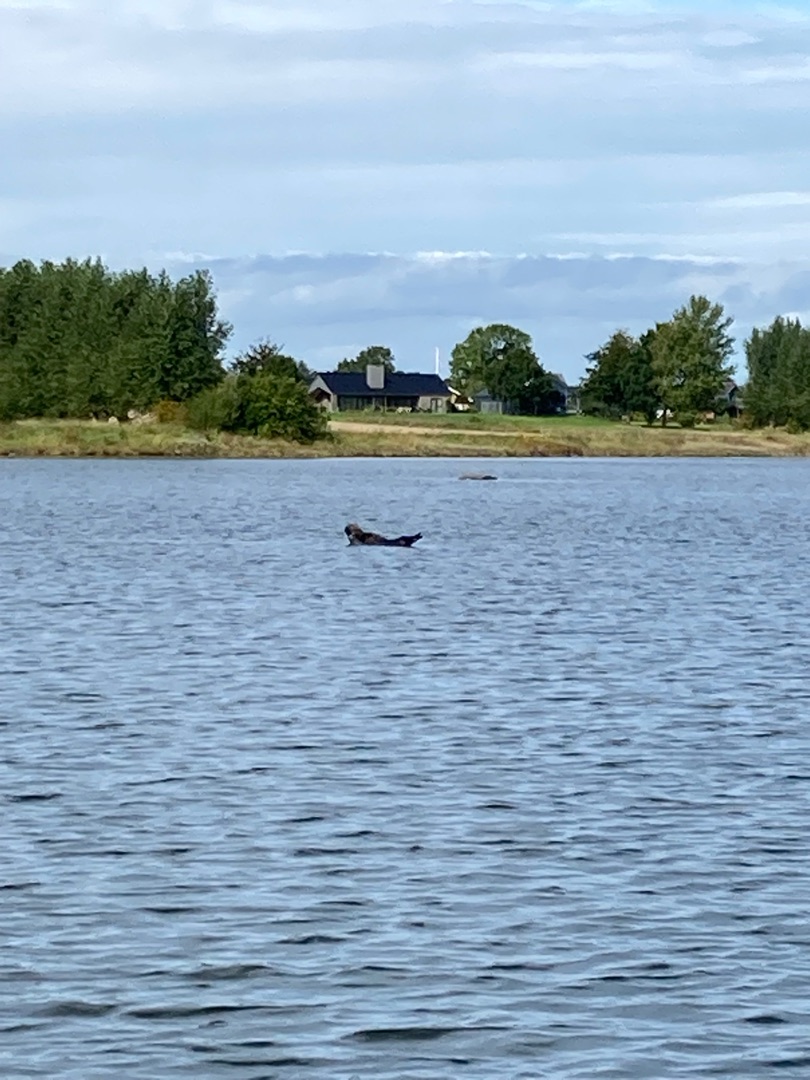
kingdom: Animalia
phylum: Chordata
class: Mammalia
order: Carnivora
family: Phocidae
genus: Phoca
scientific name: Phoca vitulina
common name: Spættet sæl
